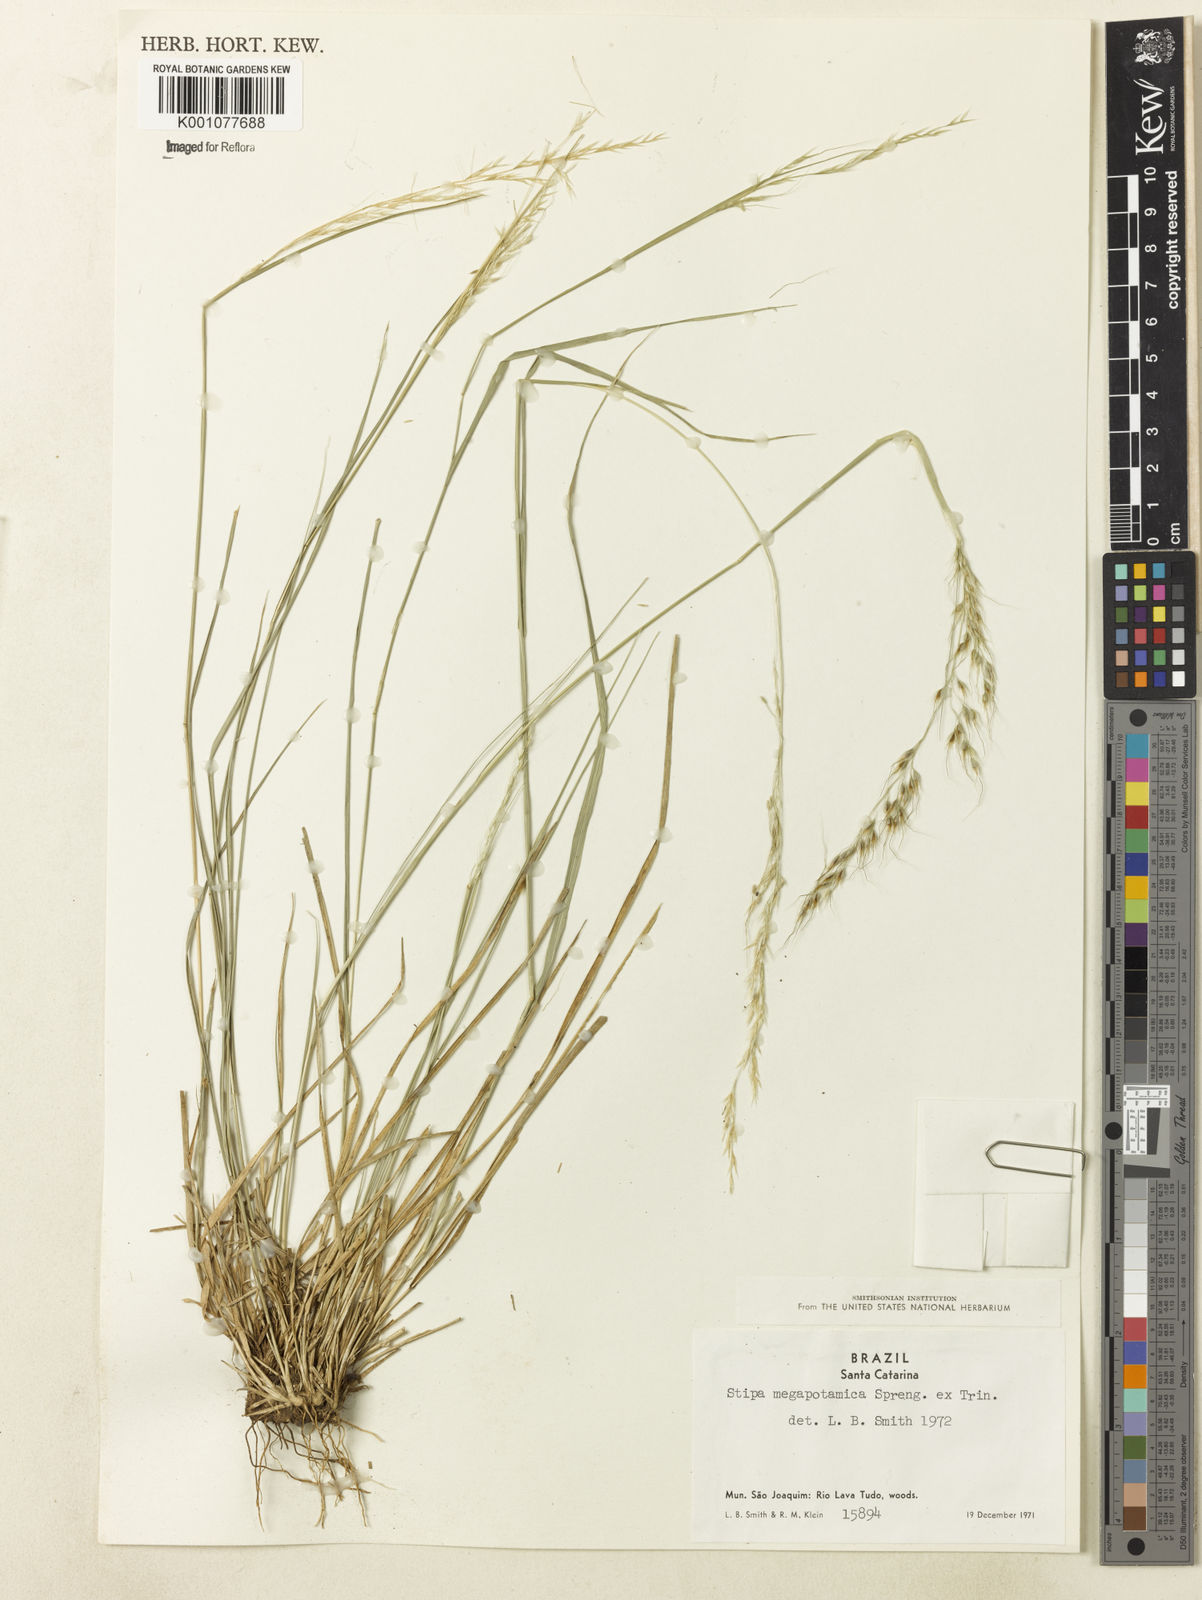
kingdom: Plantae
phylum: Tracheophyta
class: Liliopsida
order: Poales
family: Poaceae
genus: Jarava
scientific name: Jarava filifolia
